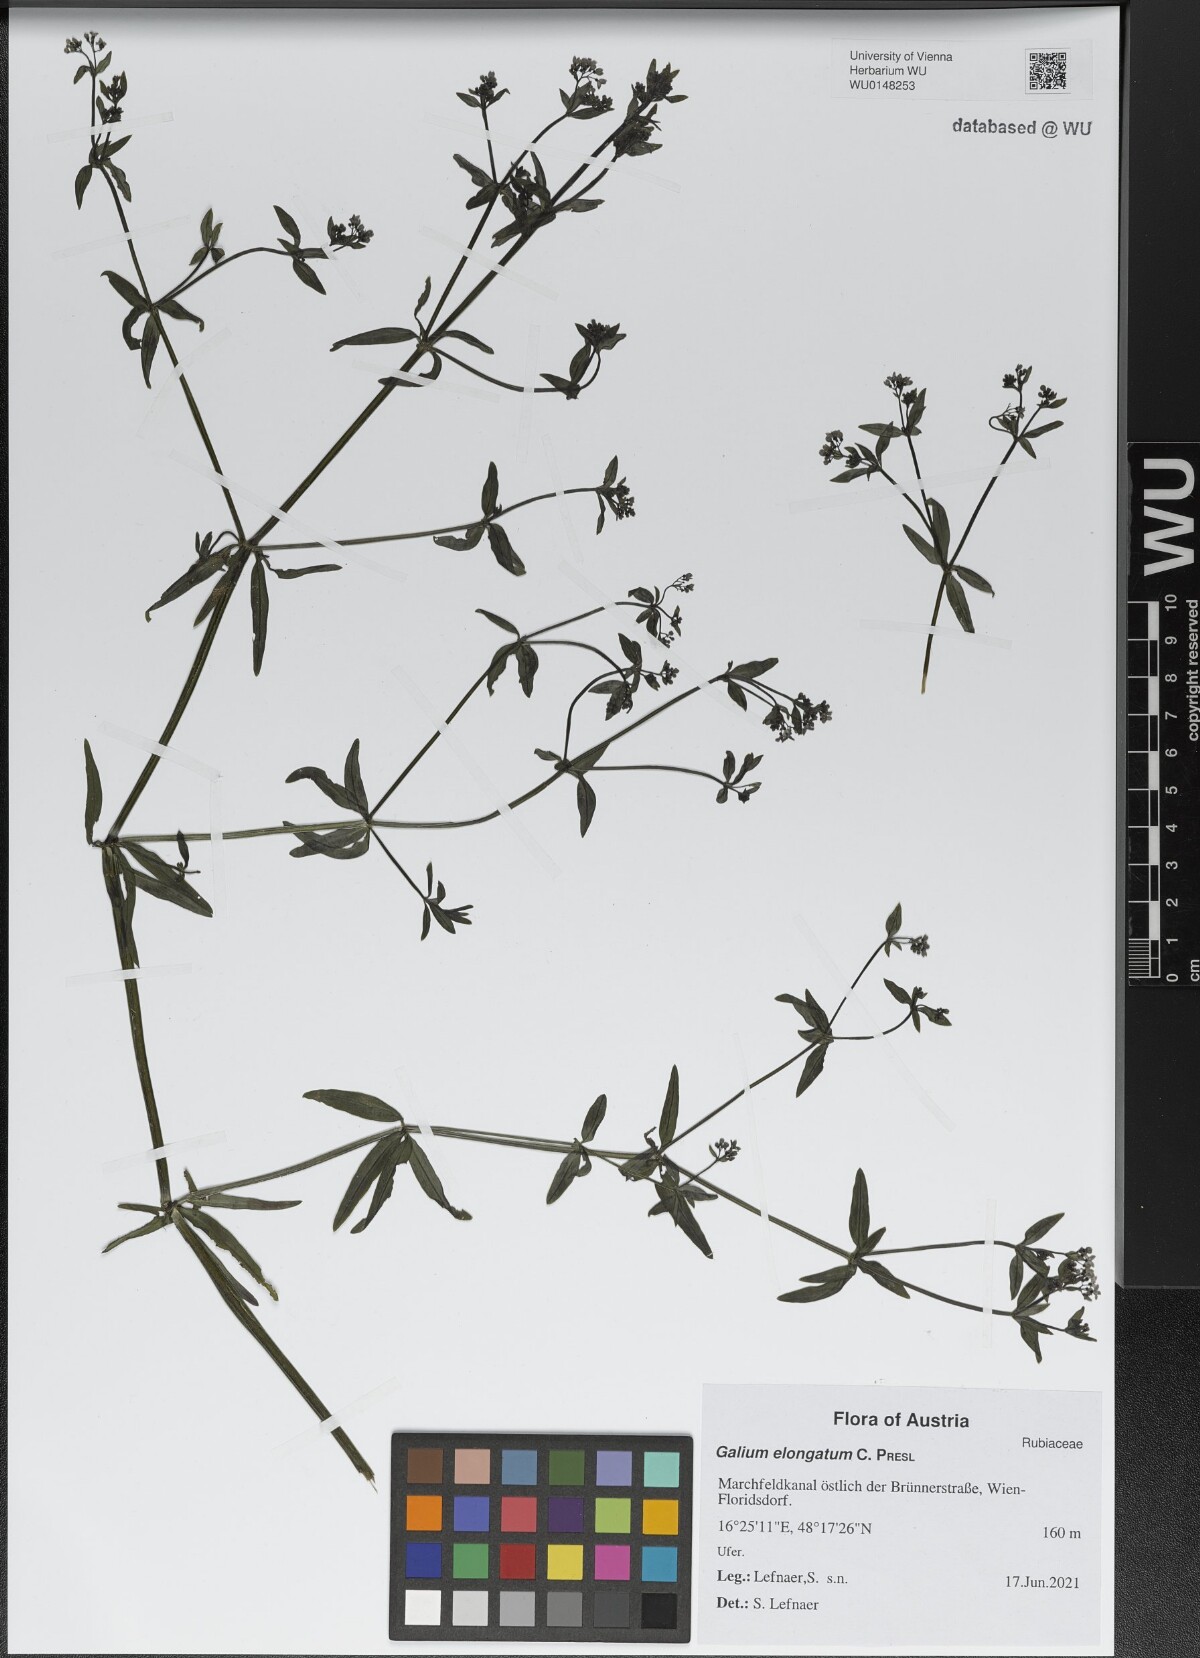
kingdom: Plantae
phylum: Tracheophyta
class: Magnoliopsida
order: Gentianales
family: Rubiaceae
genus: Galium
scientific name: Galium elongatum
